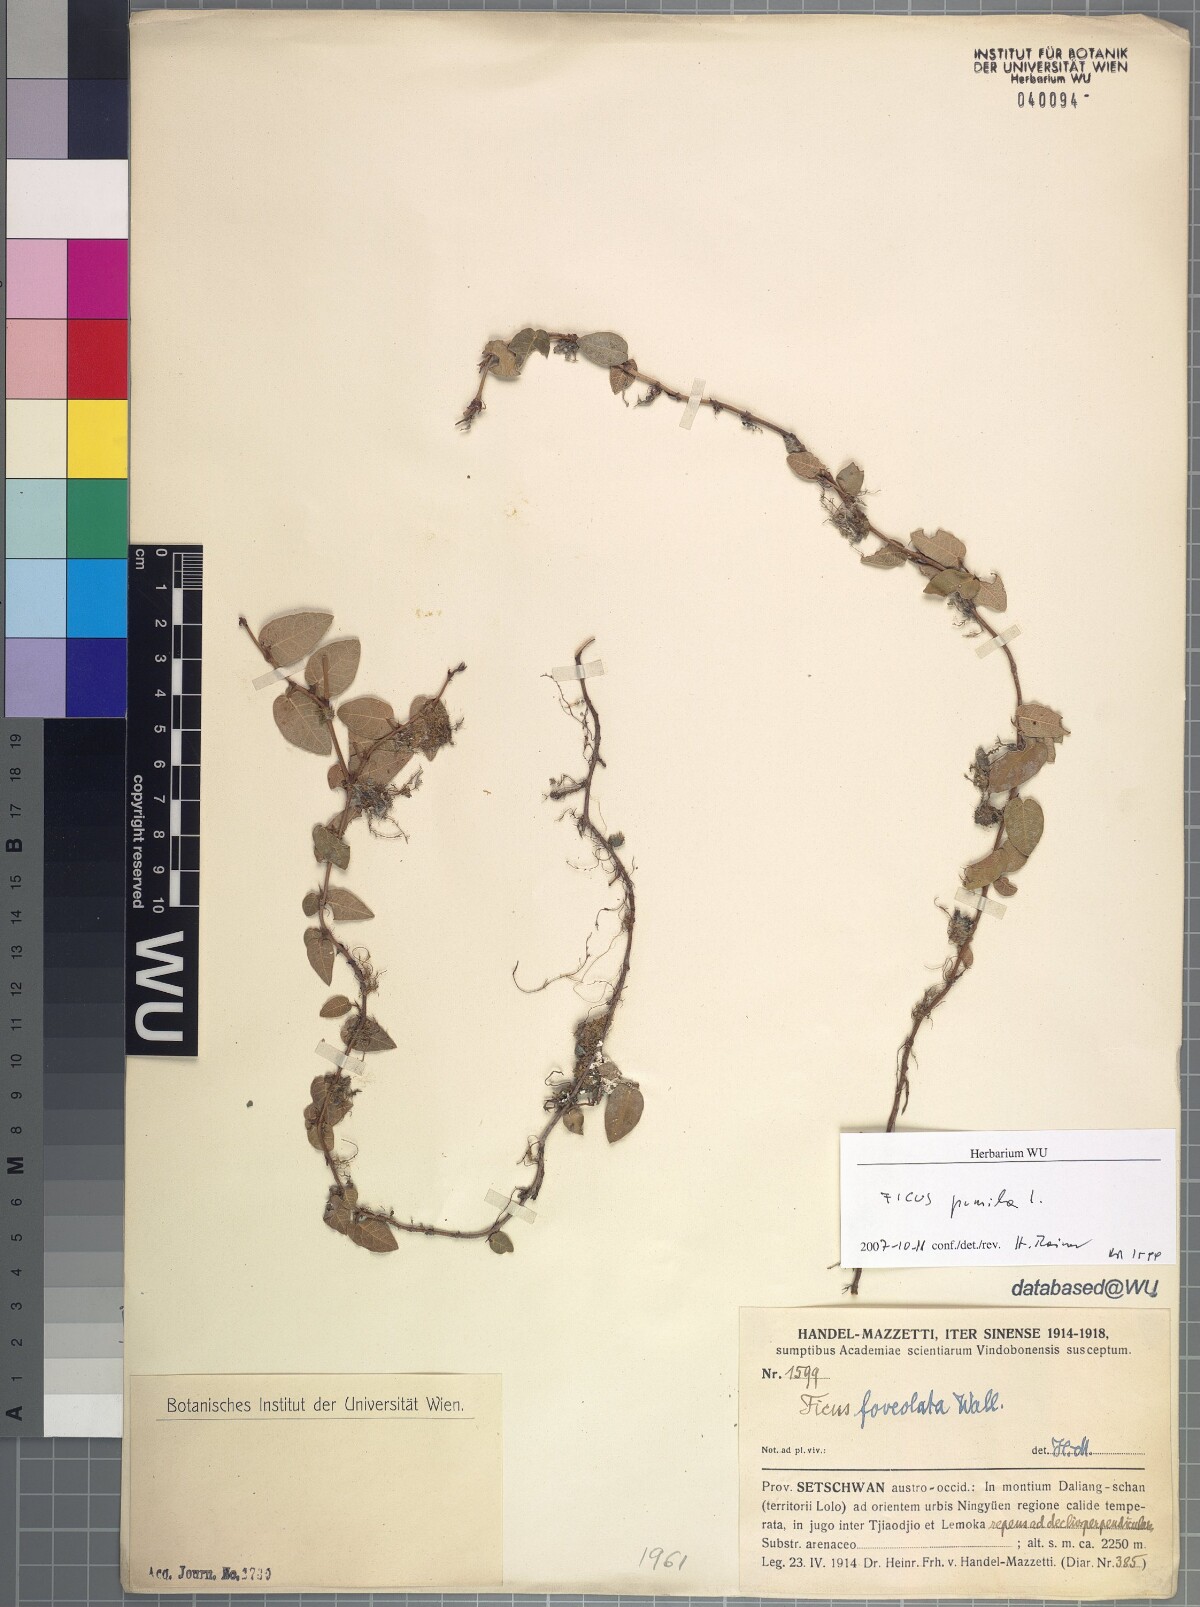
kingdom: Plantae
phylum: Tracheophyta
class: Magnoliopsida
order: Rosales
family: Moraceae
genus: Ficus
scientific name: Ficus pumila
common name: Climbingfig
